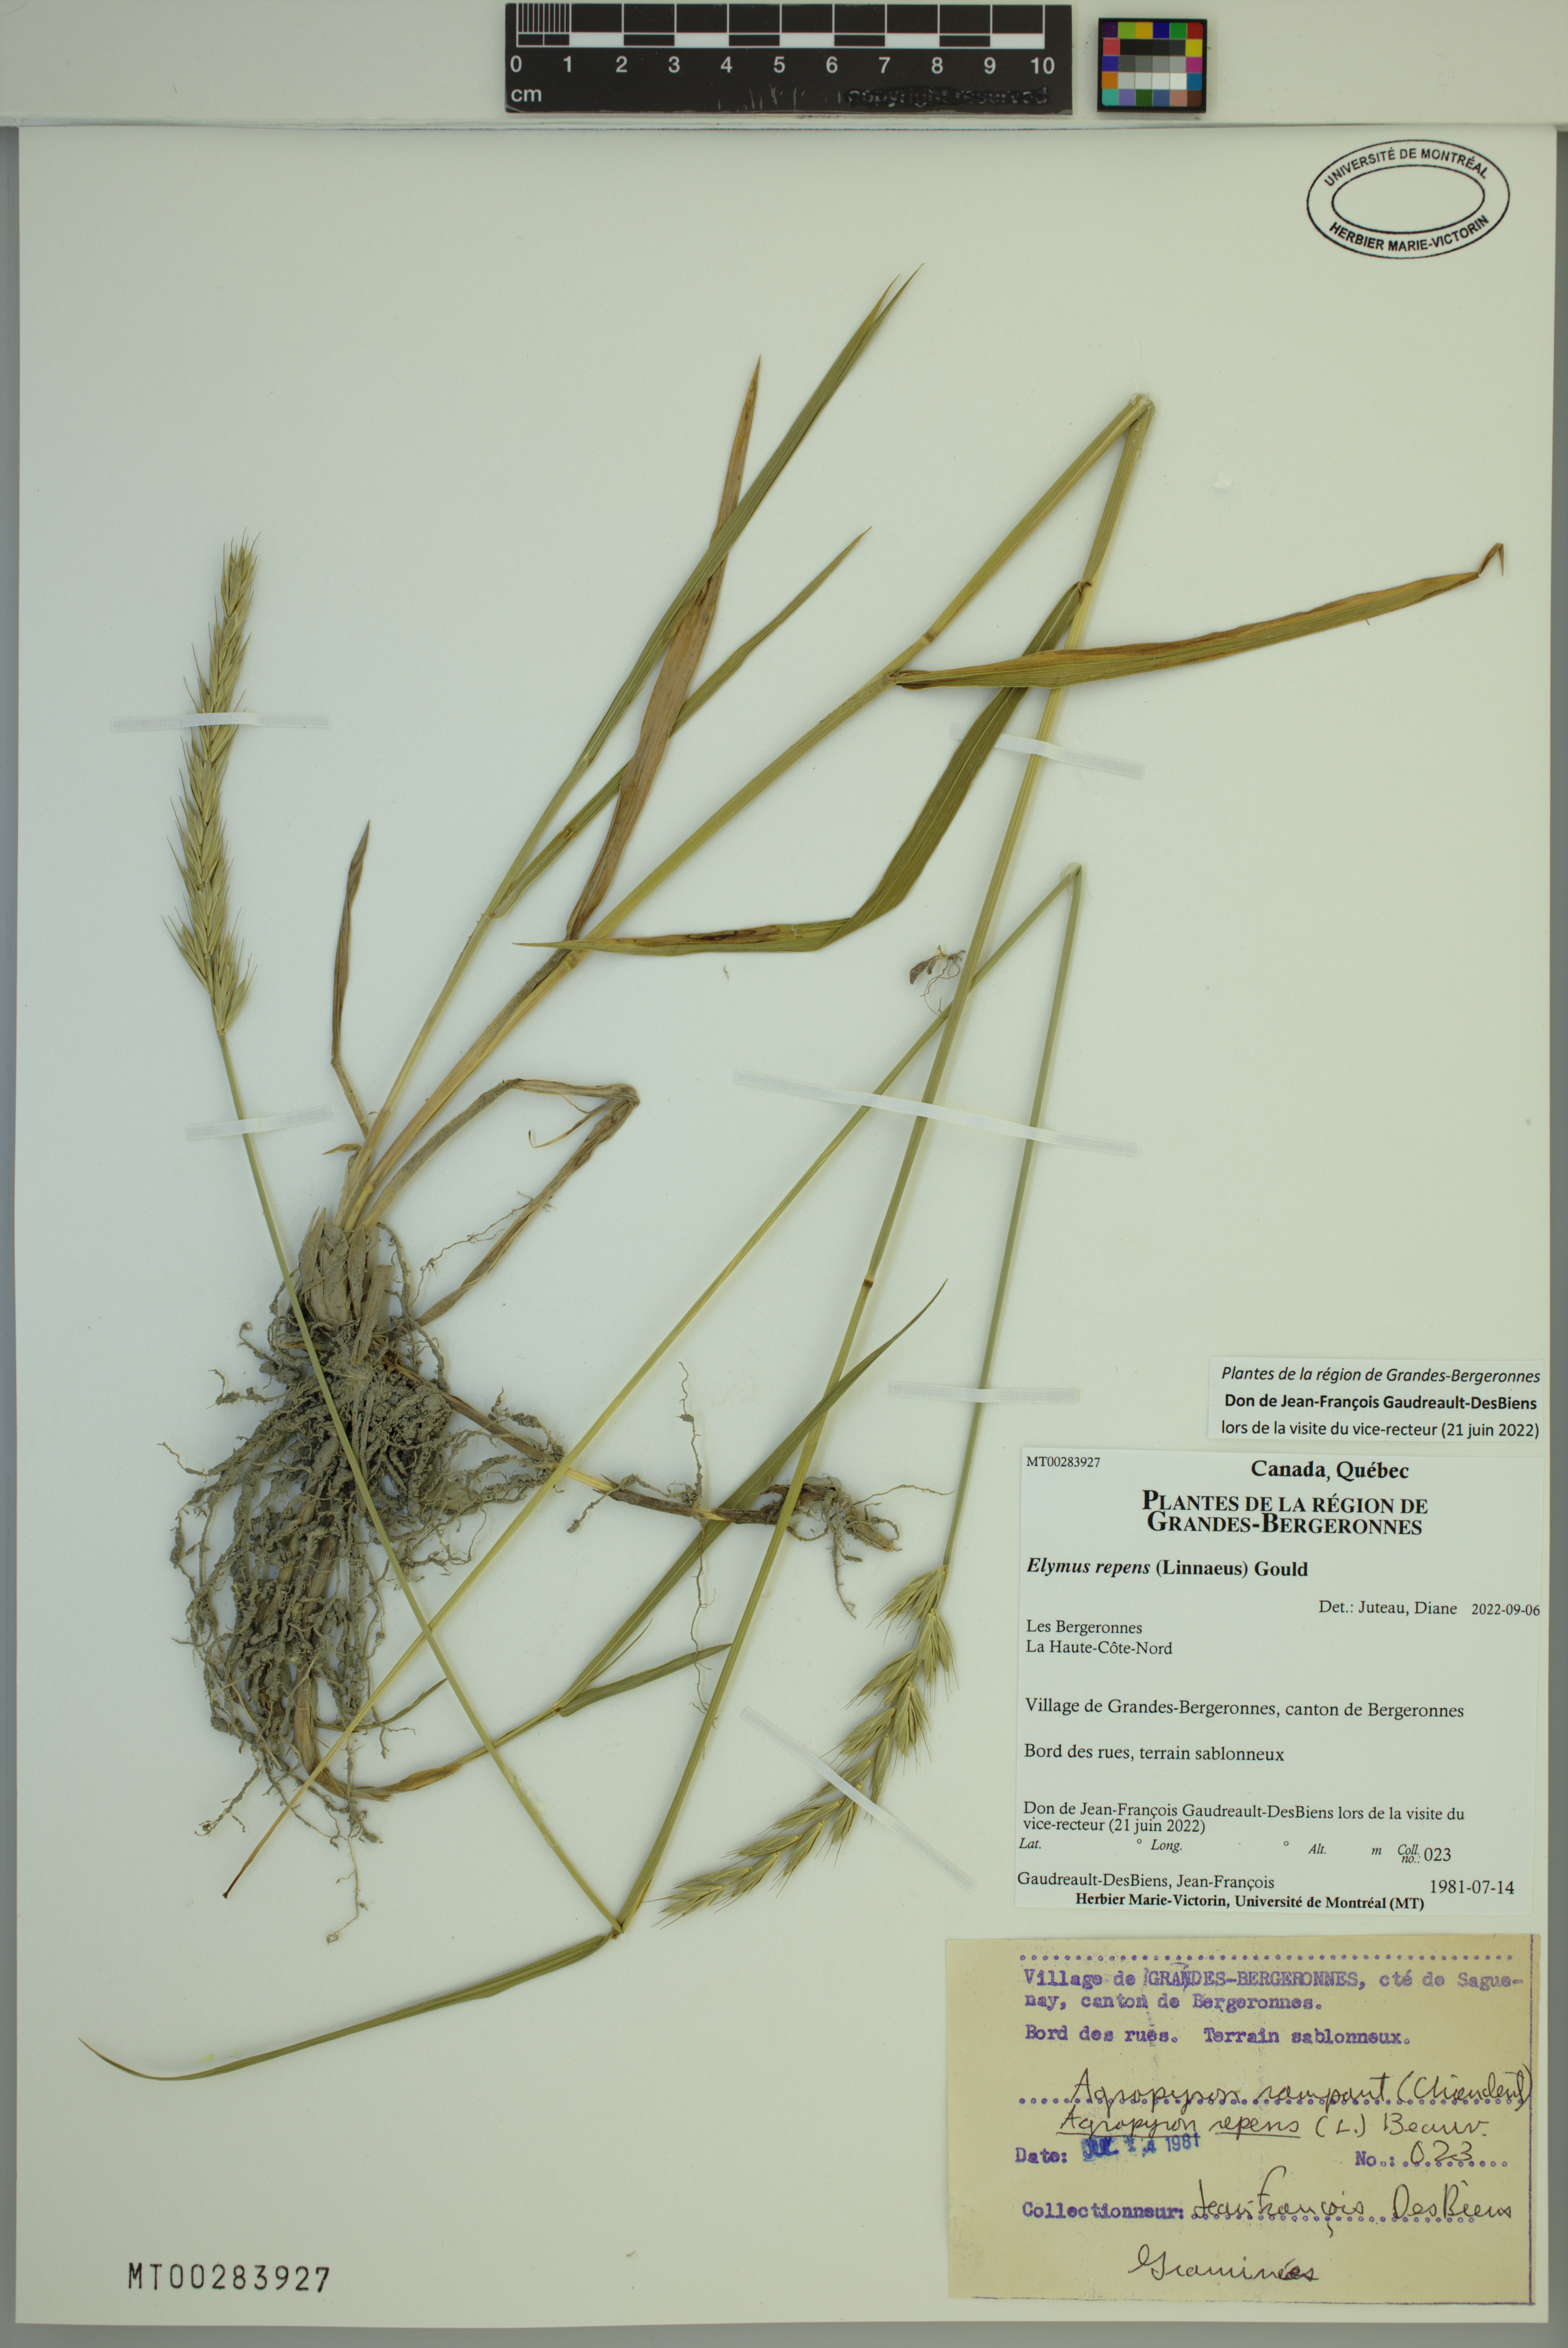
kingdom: Plantae
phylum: Tracheophyta
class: Liliopsida
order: Poales
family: Poaceae
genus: Elymus
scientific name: Elymus repens
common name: Quackgrass
